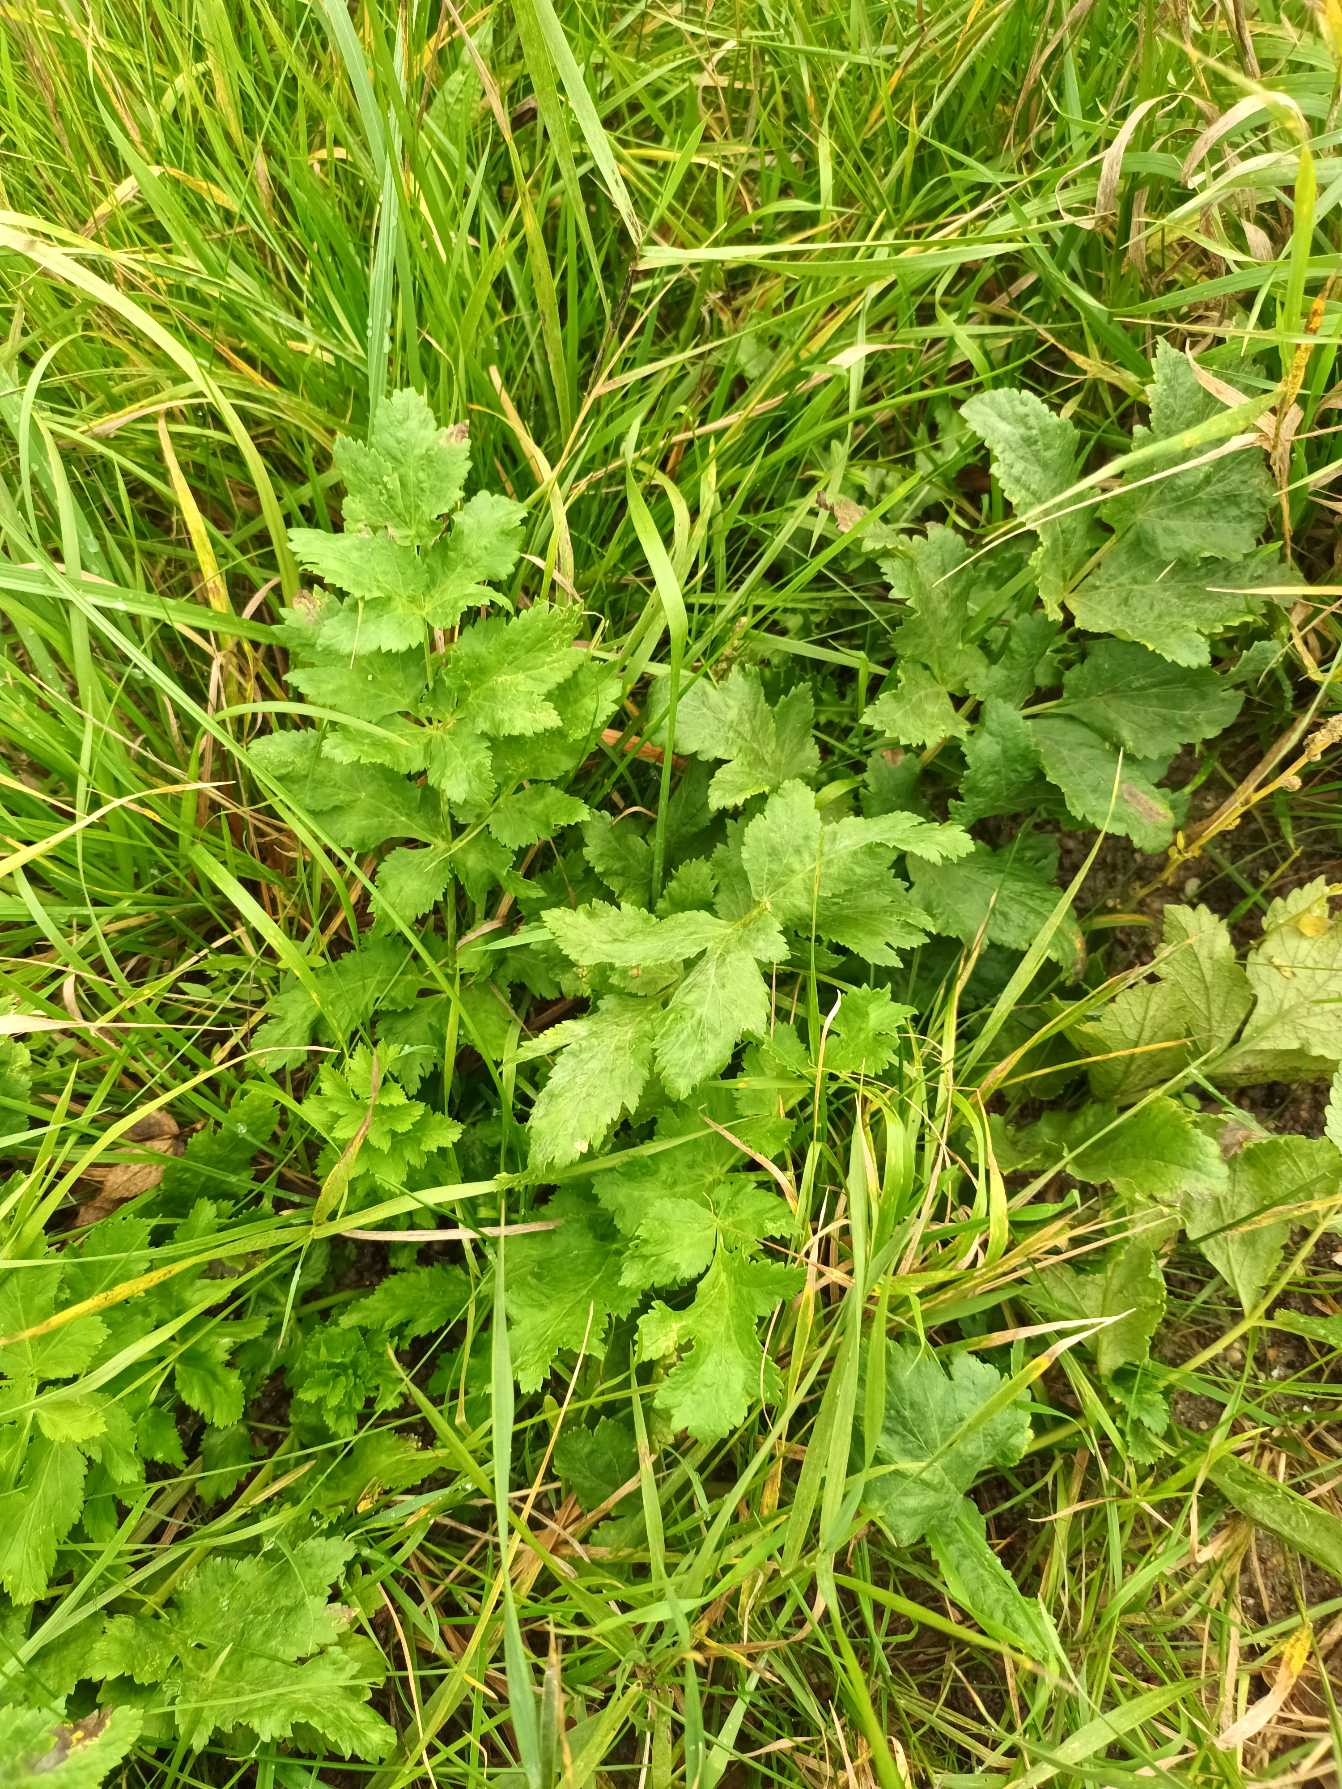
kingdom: Plantae
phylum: Tracheophyta
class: Magnoliopsida
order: Apiales
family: Apiaceae
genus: Pastinaca
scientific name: Pastinaca sativa
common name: Pastinak
